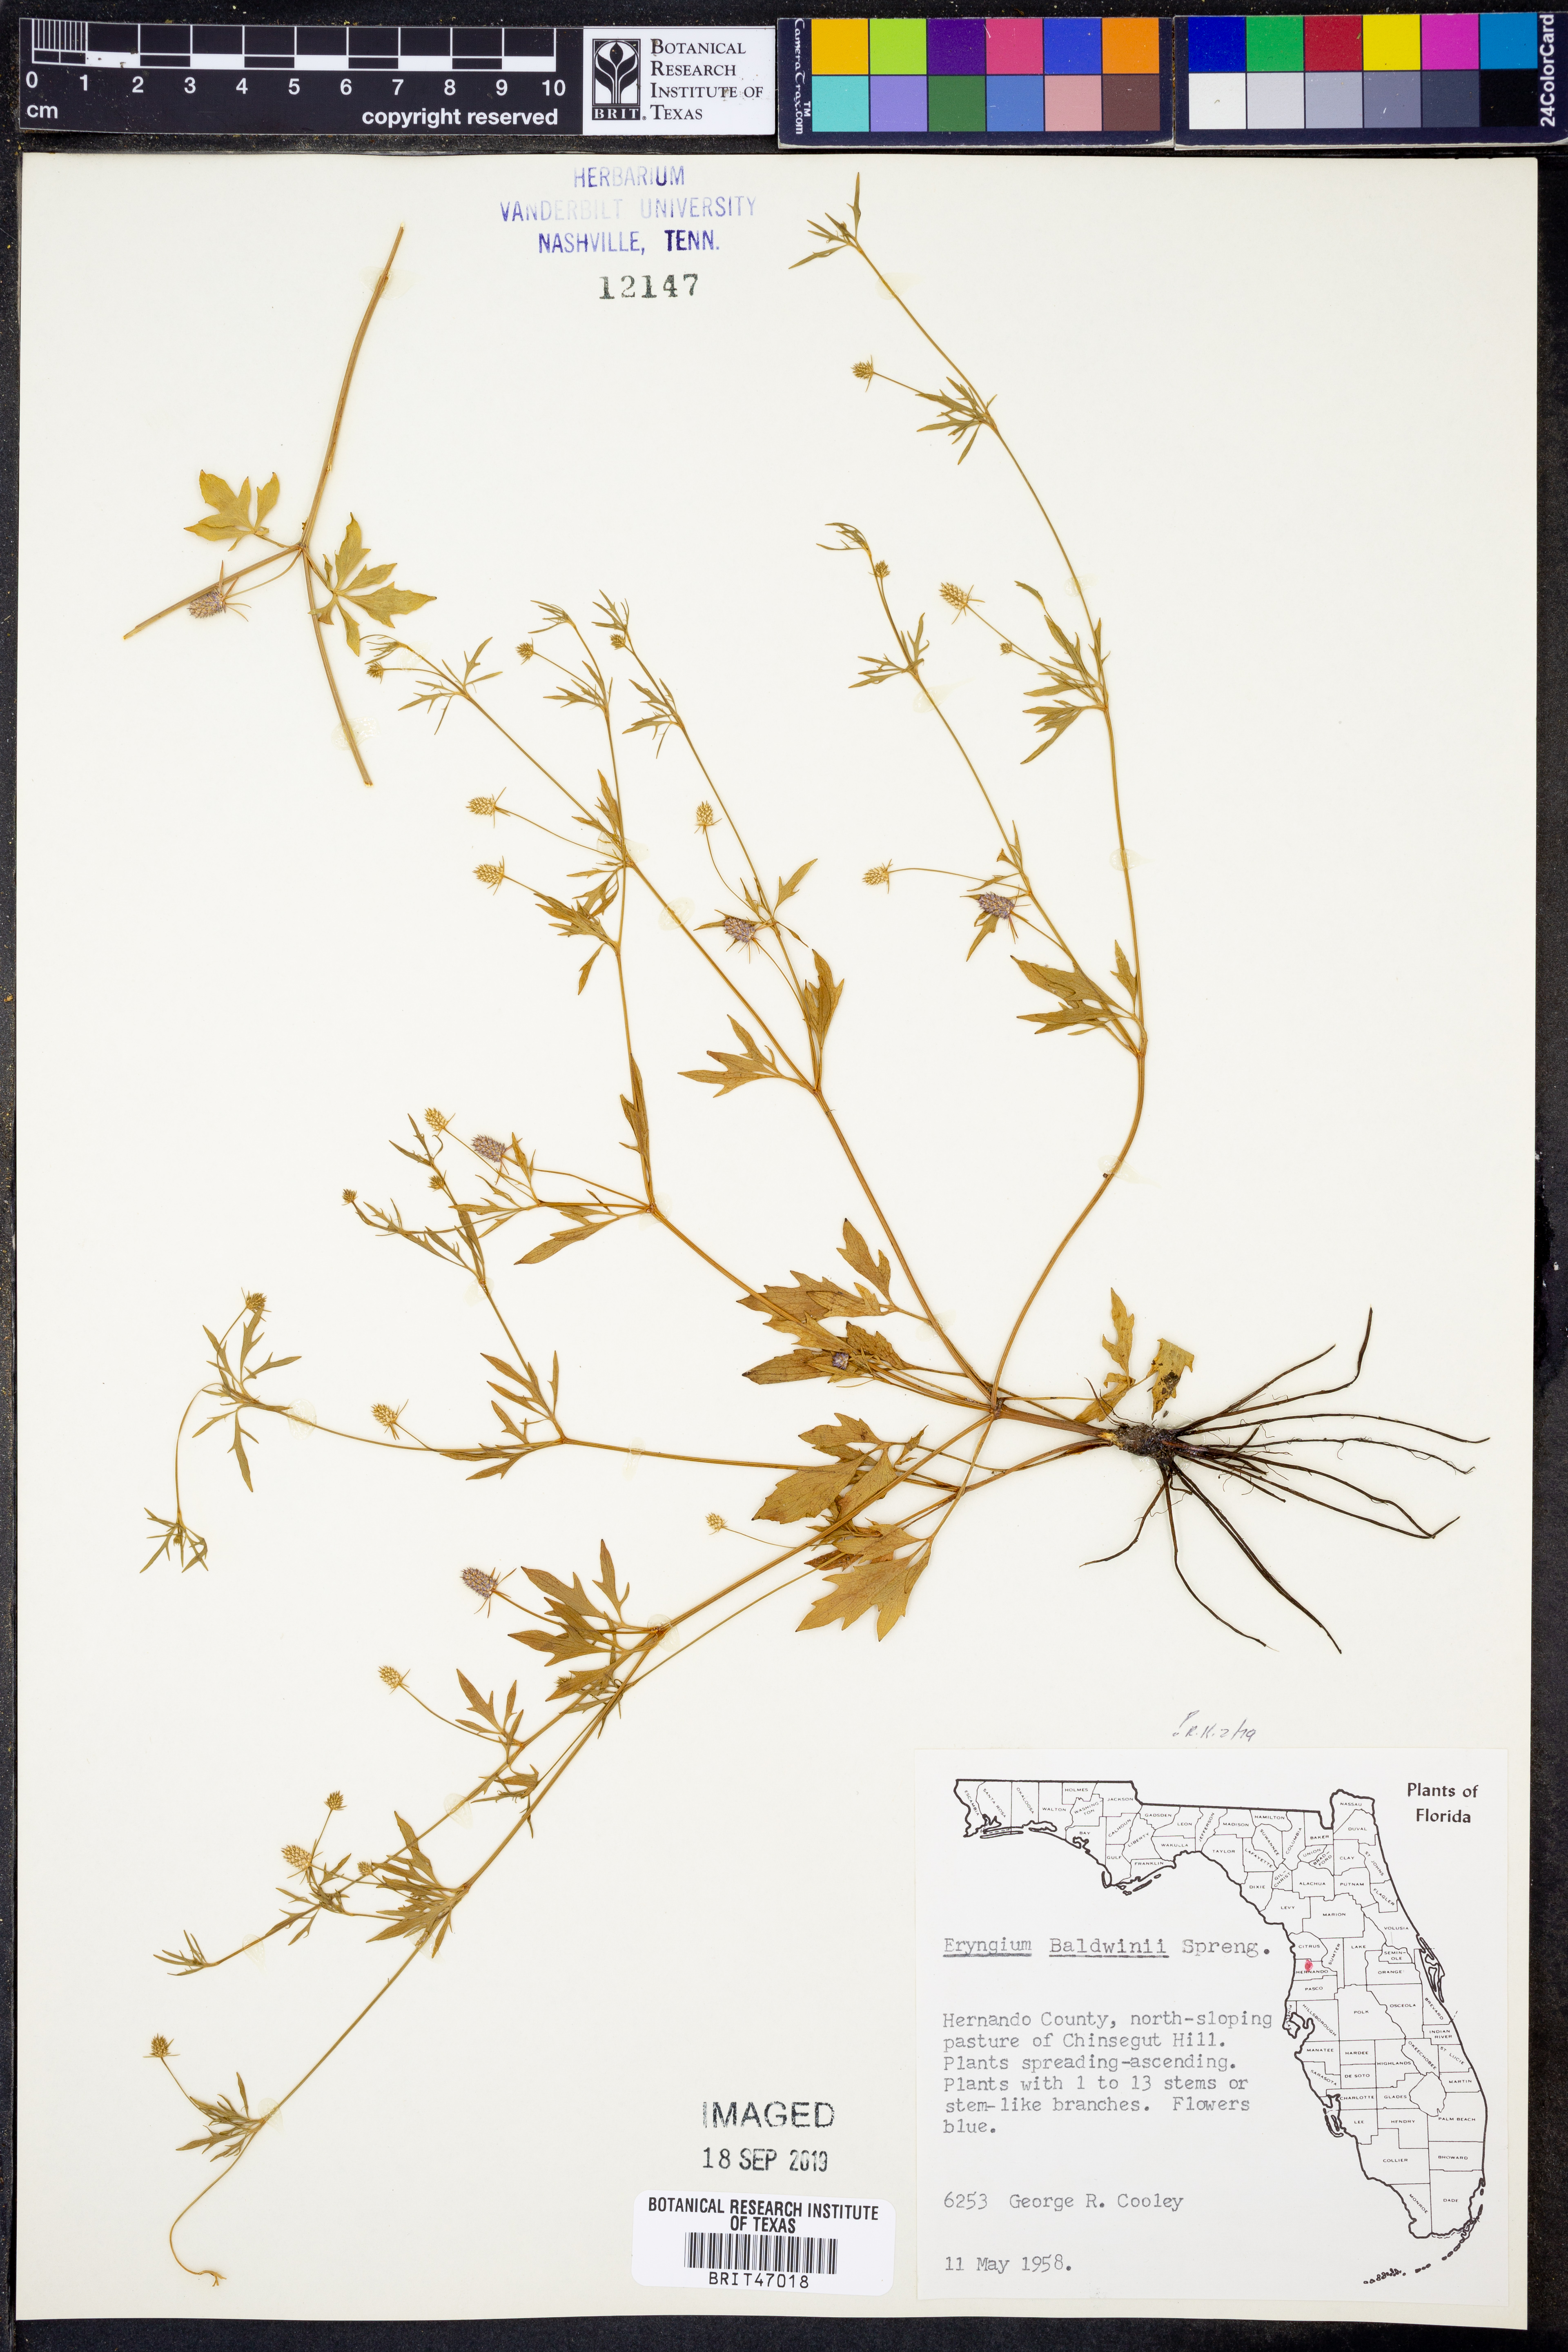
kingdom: Plantae
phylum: Tracheophyta
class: Magnoliopsida
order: Apiales
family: Apiaceae
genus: Eryngium
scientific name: Eryngium baldwinii
